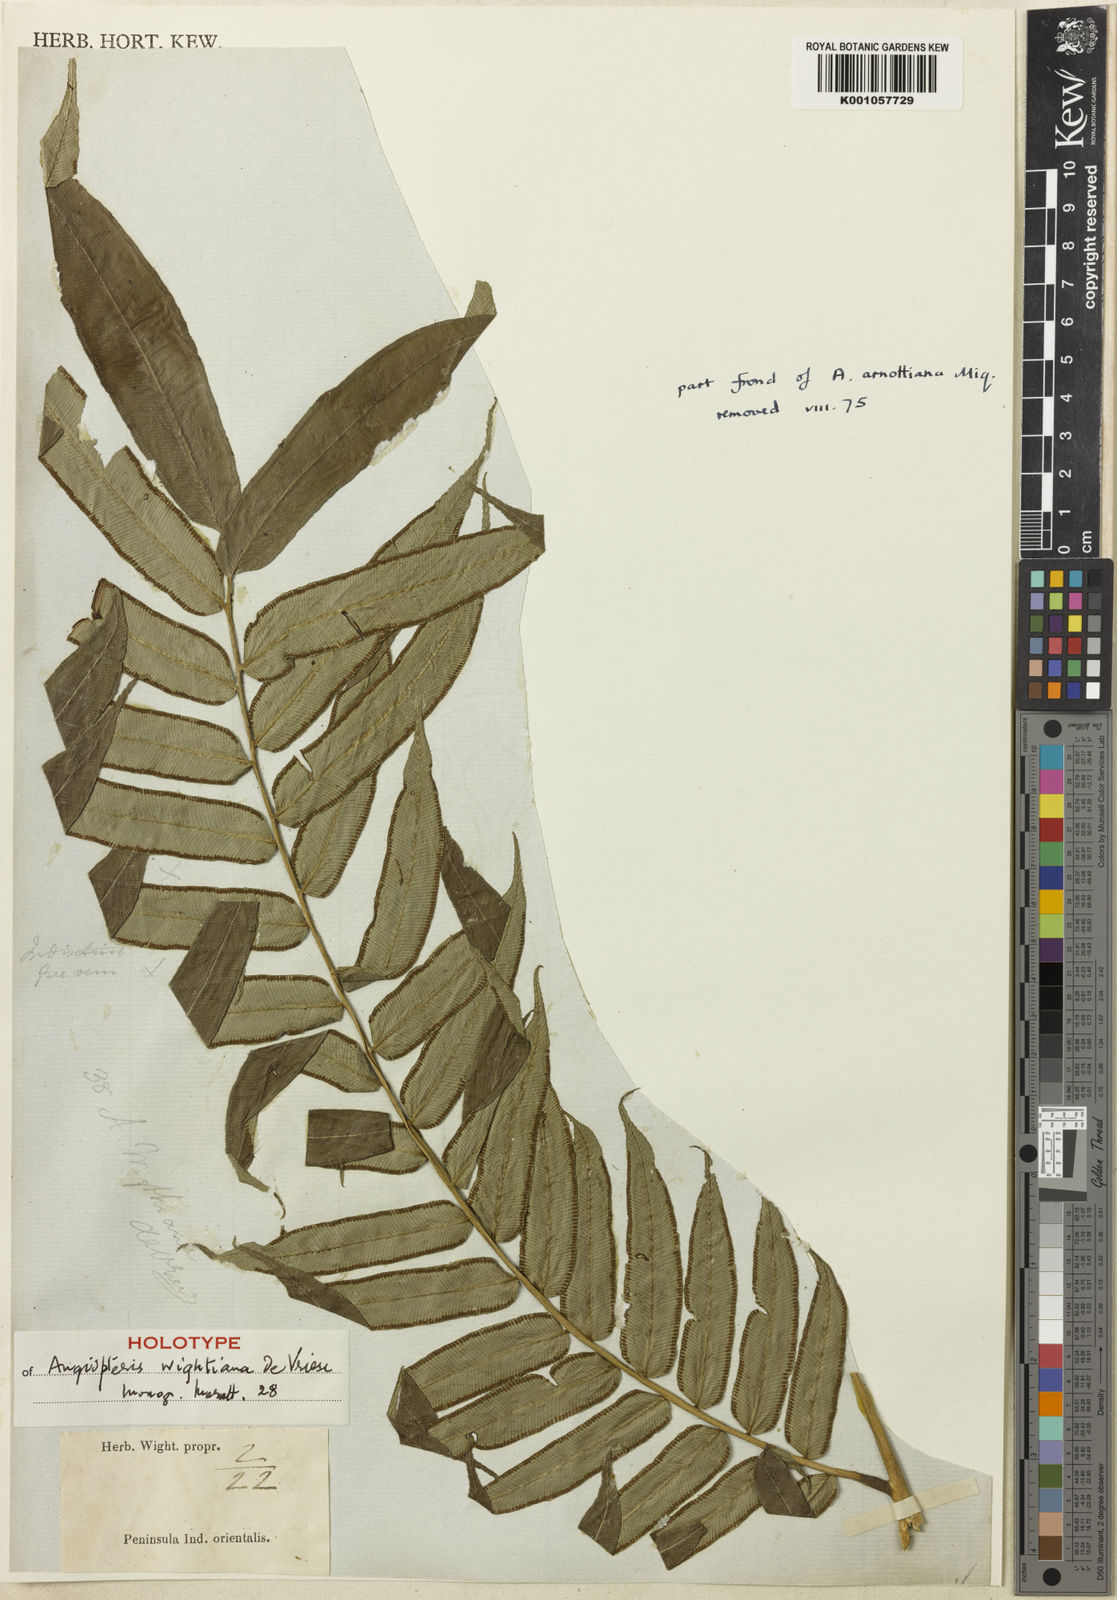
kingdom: Plantae
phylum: Tracheophyta
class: Polypodiopsida
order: Marattiales
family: Marattiaceae
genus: Angiopteris
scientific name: Angiopteris helferiana
